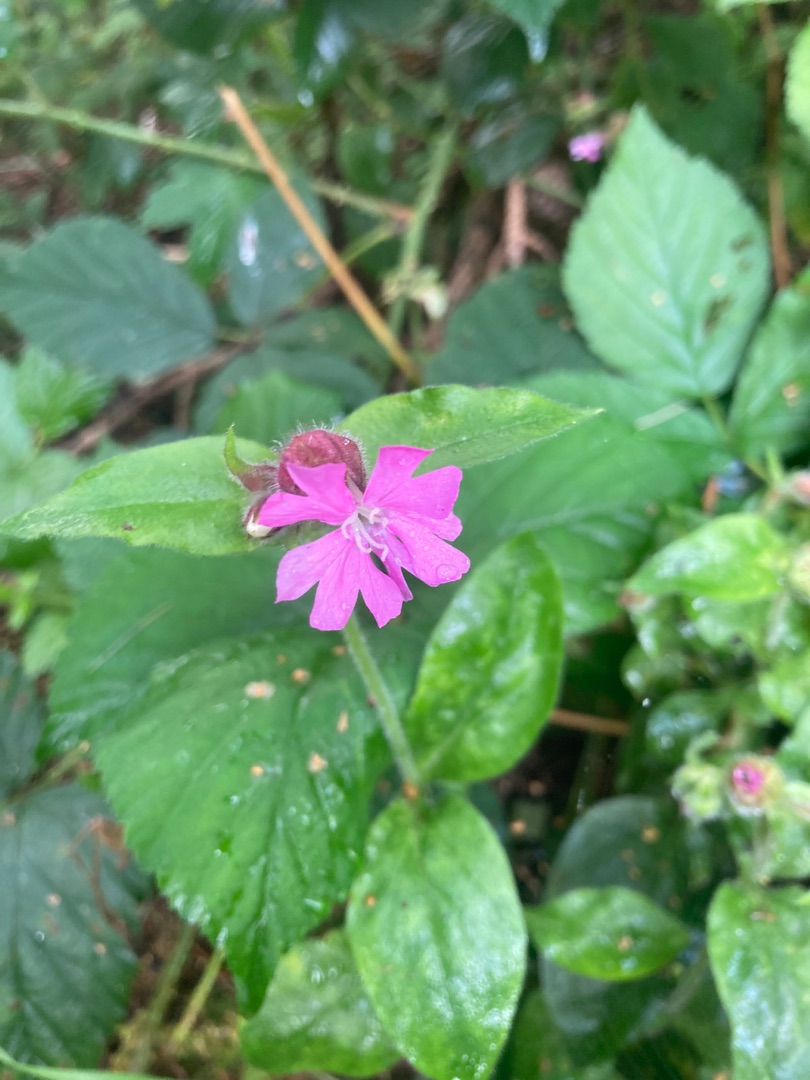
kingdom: Plantae
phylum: Tracheophyta
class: Magnoliopsida
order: Caryophyllales
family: Caryophyllaceae
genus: Silene
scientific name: Silene dioica
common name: Dagpragtstjerne
